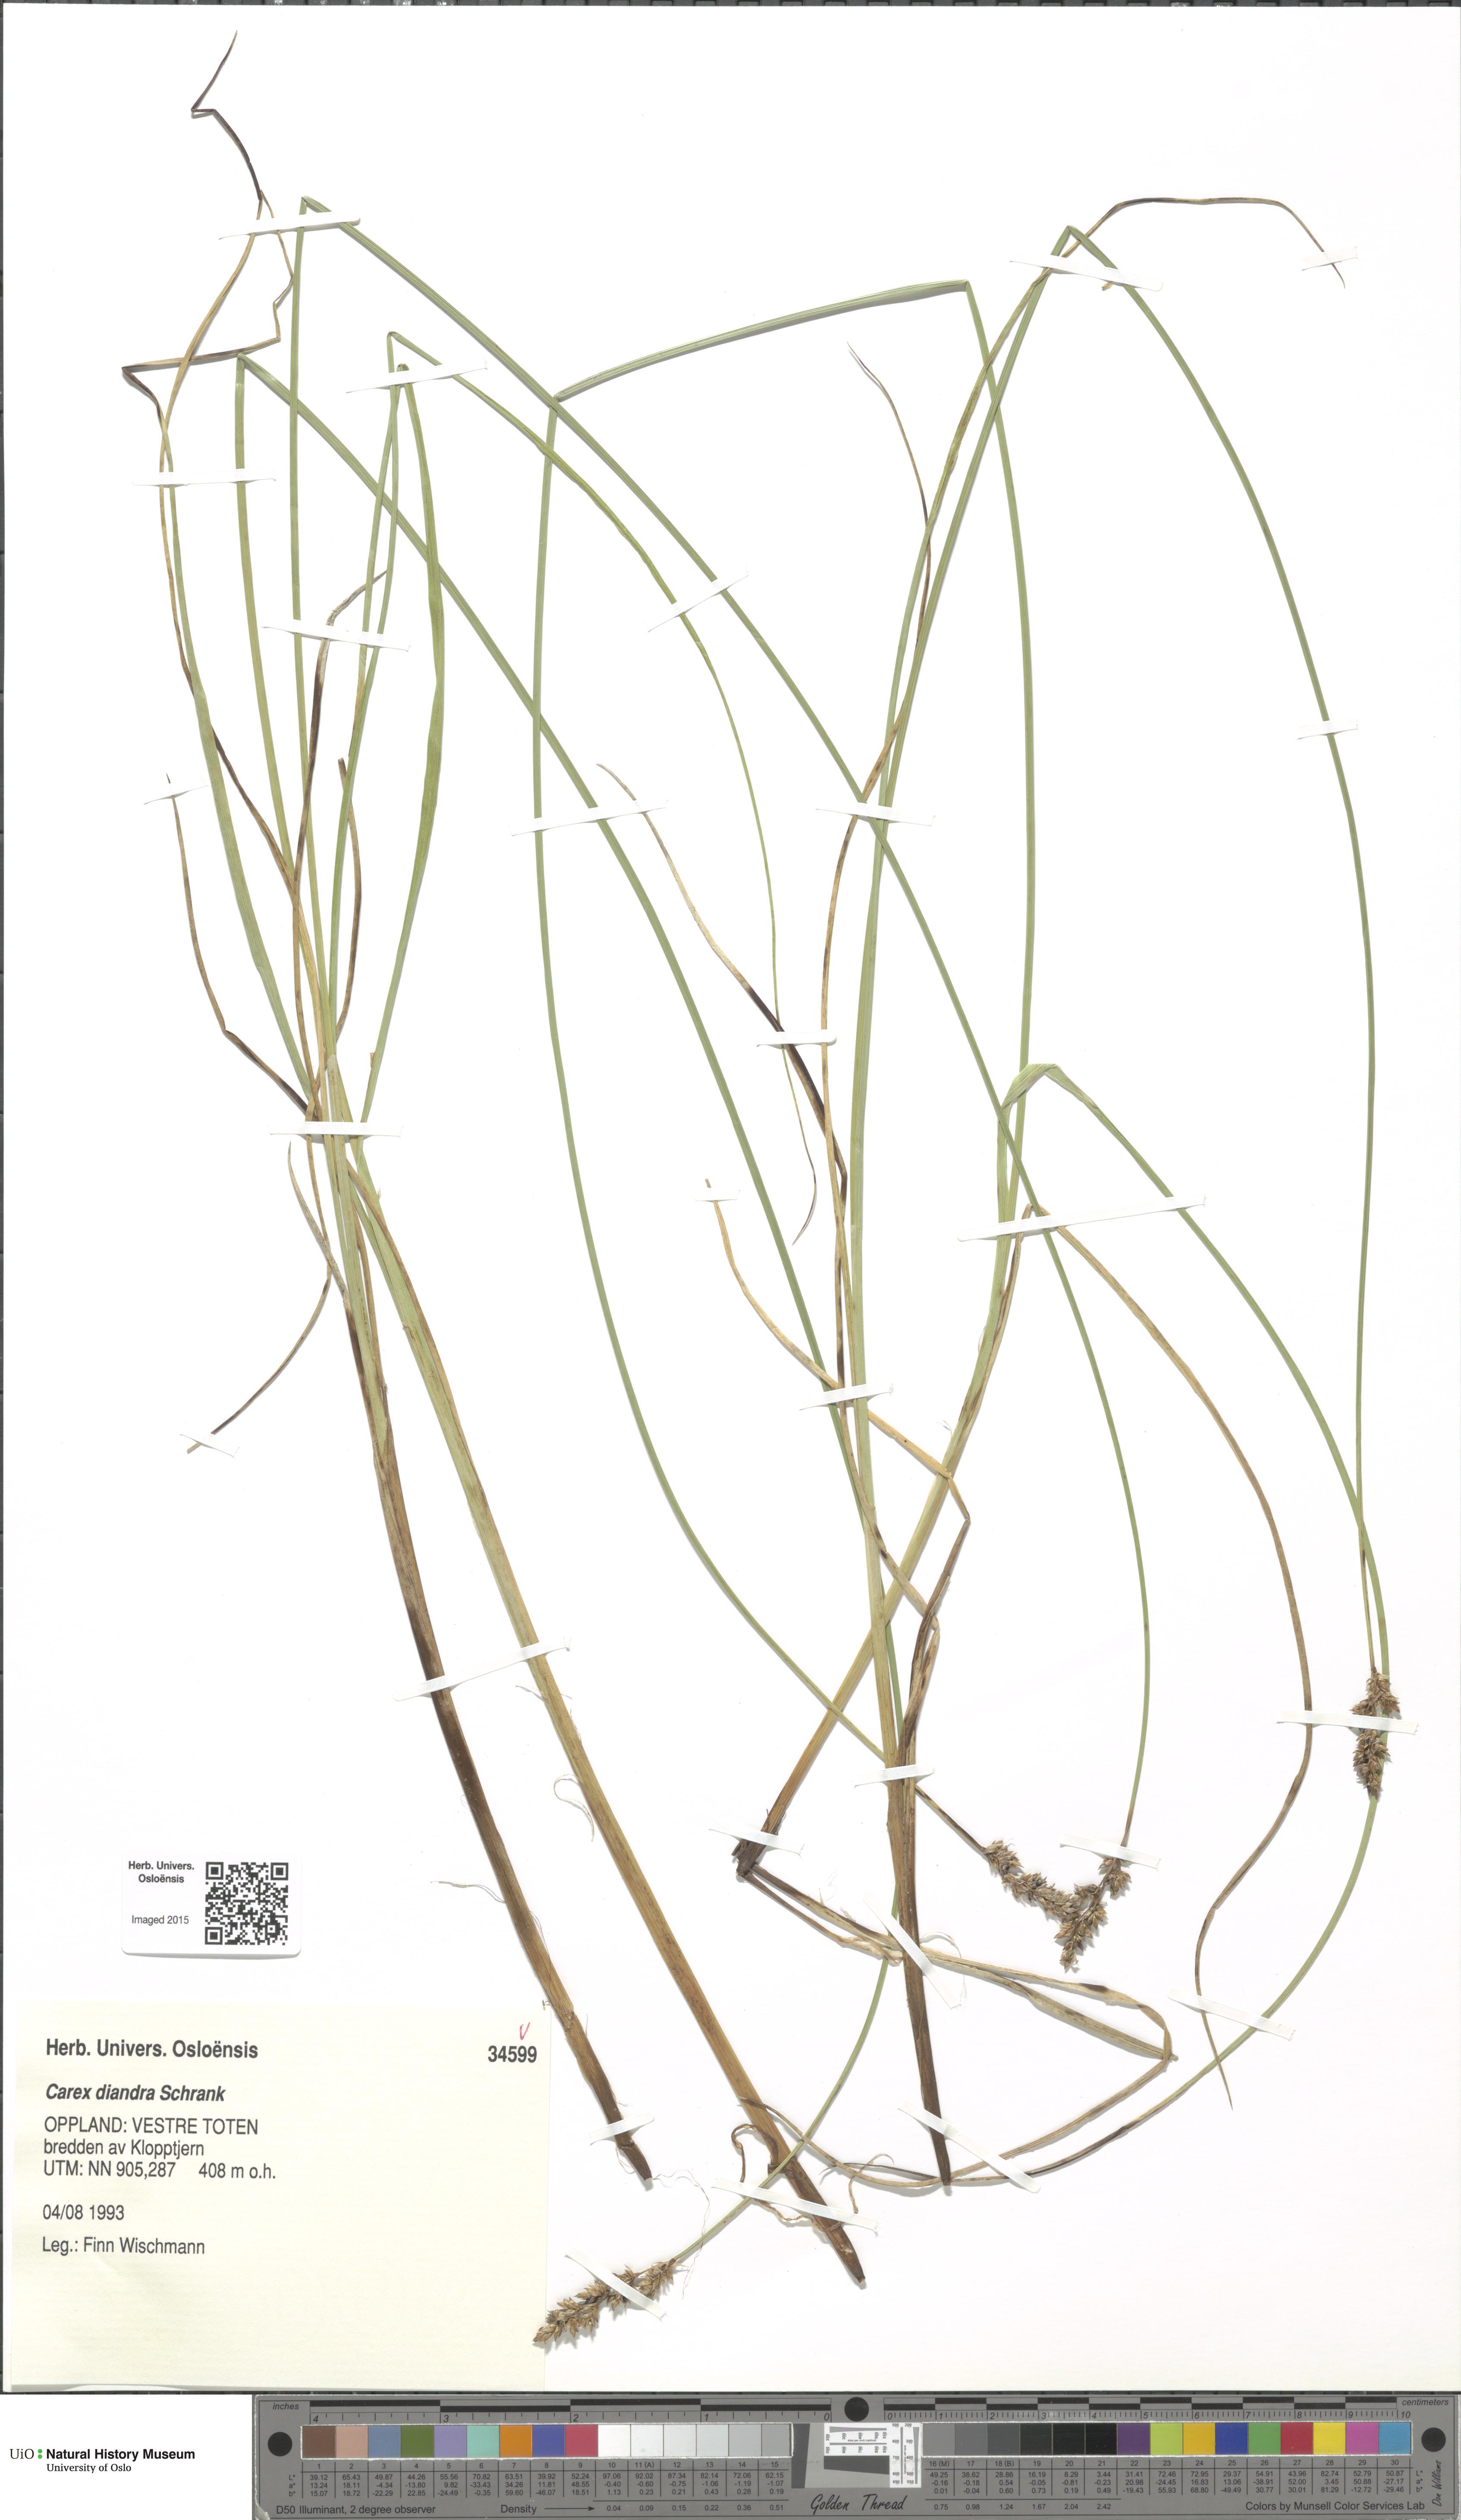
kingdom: Plantae
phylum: Tracheophyta
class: Liliopsida
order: Poales
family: Cyperaceae
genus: Carex
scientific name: Carex diandra
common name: Lesser tussock-sedge
